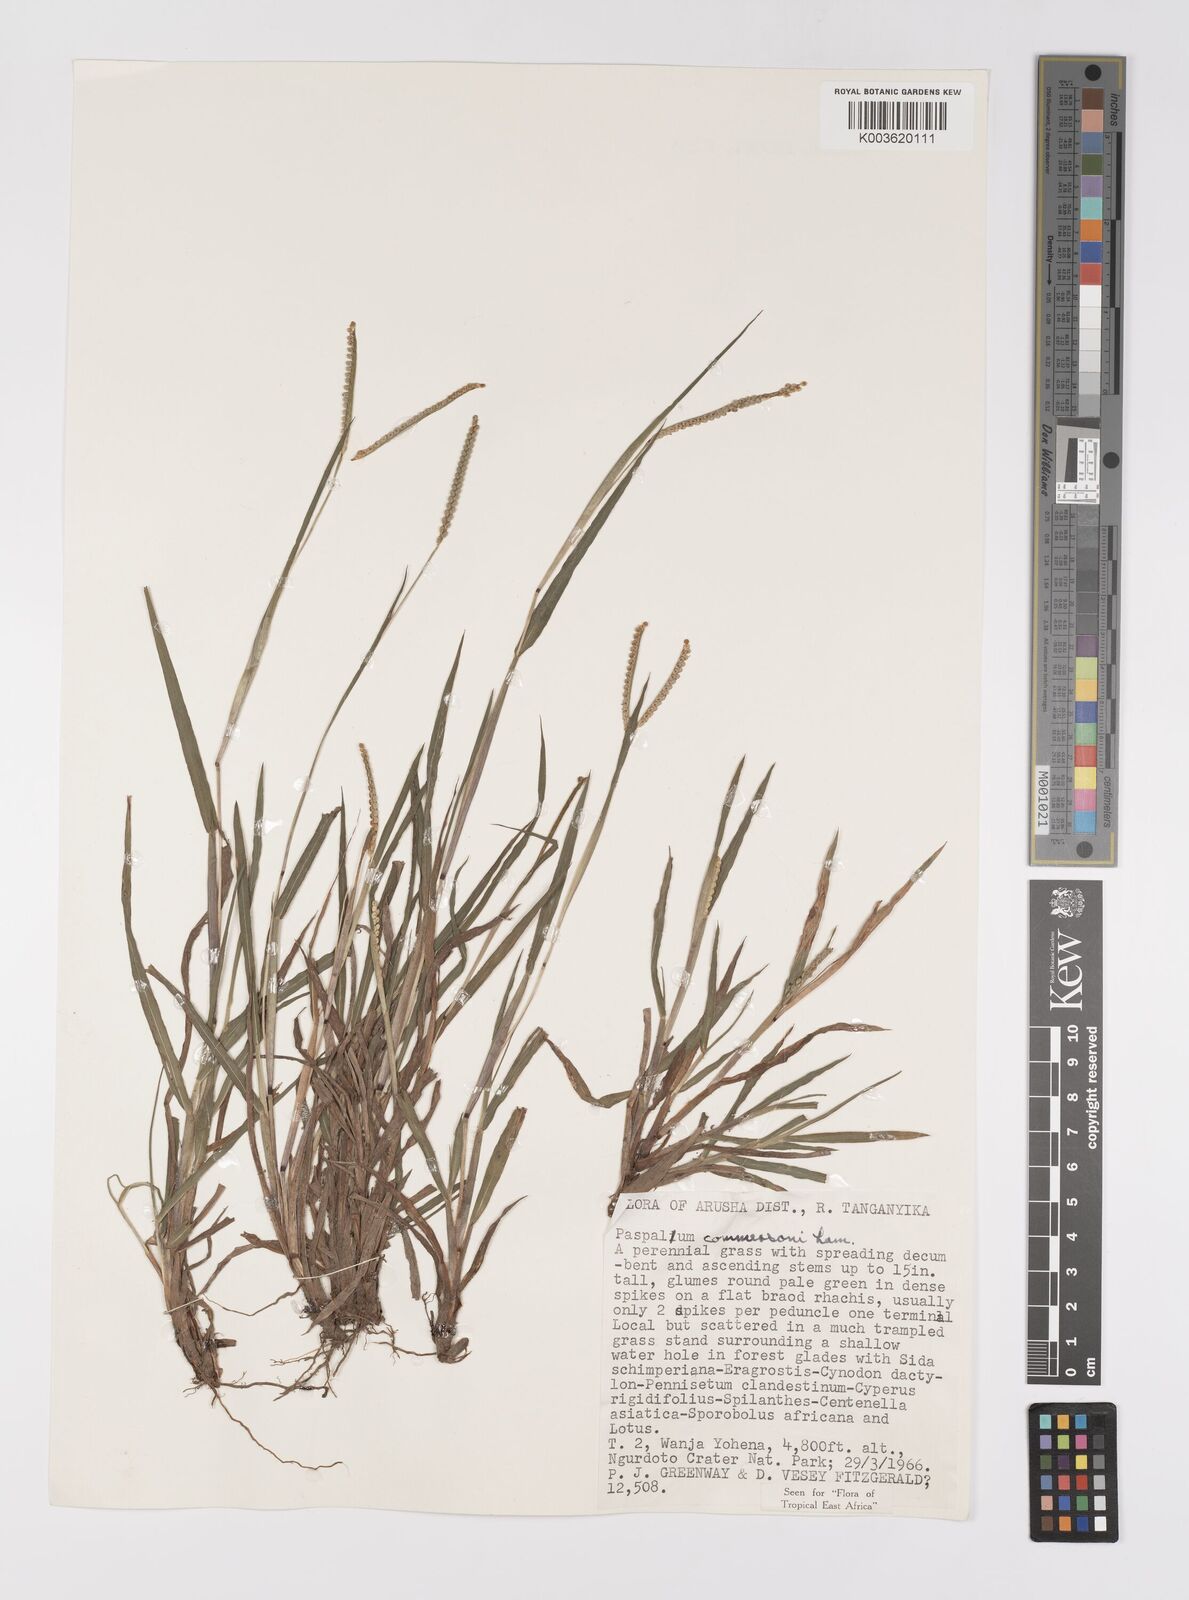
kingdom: Plantae
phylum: Tracheophyta
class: Liliopsida
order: Poales
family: Poaceae
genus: Paspalum
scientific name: Paspalum scrobiculatum
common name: Kodo millet
